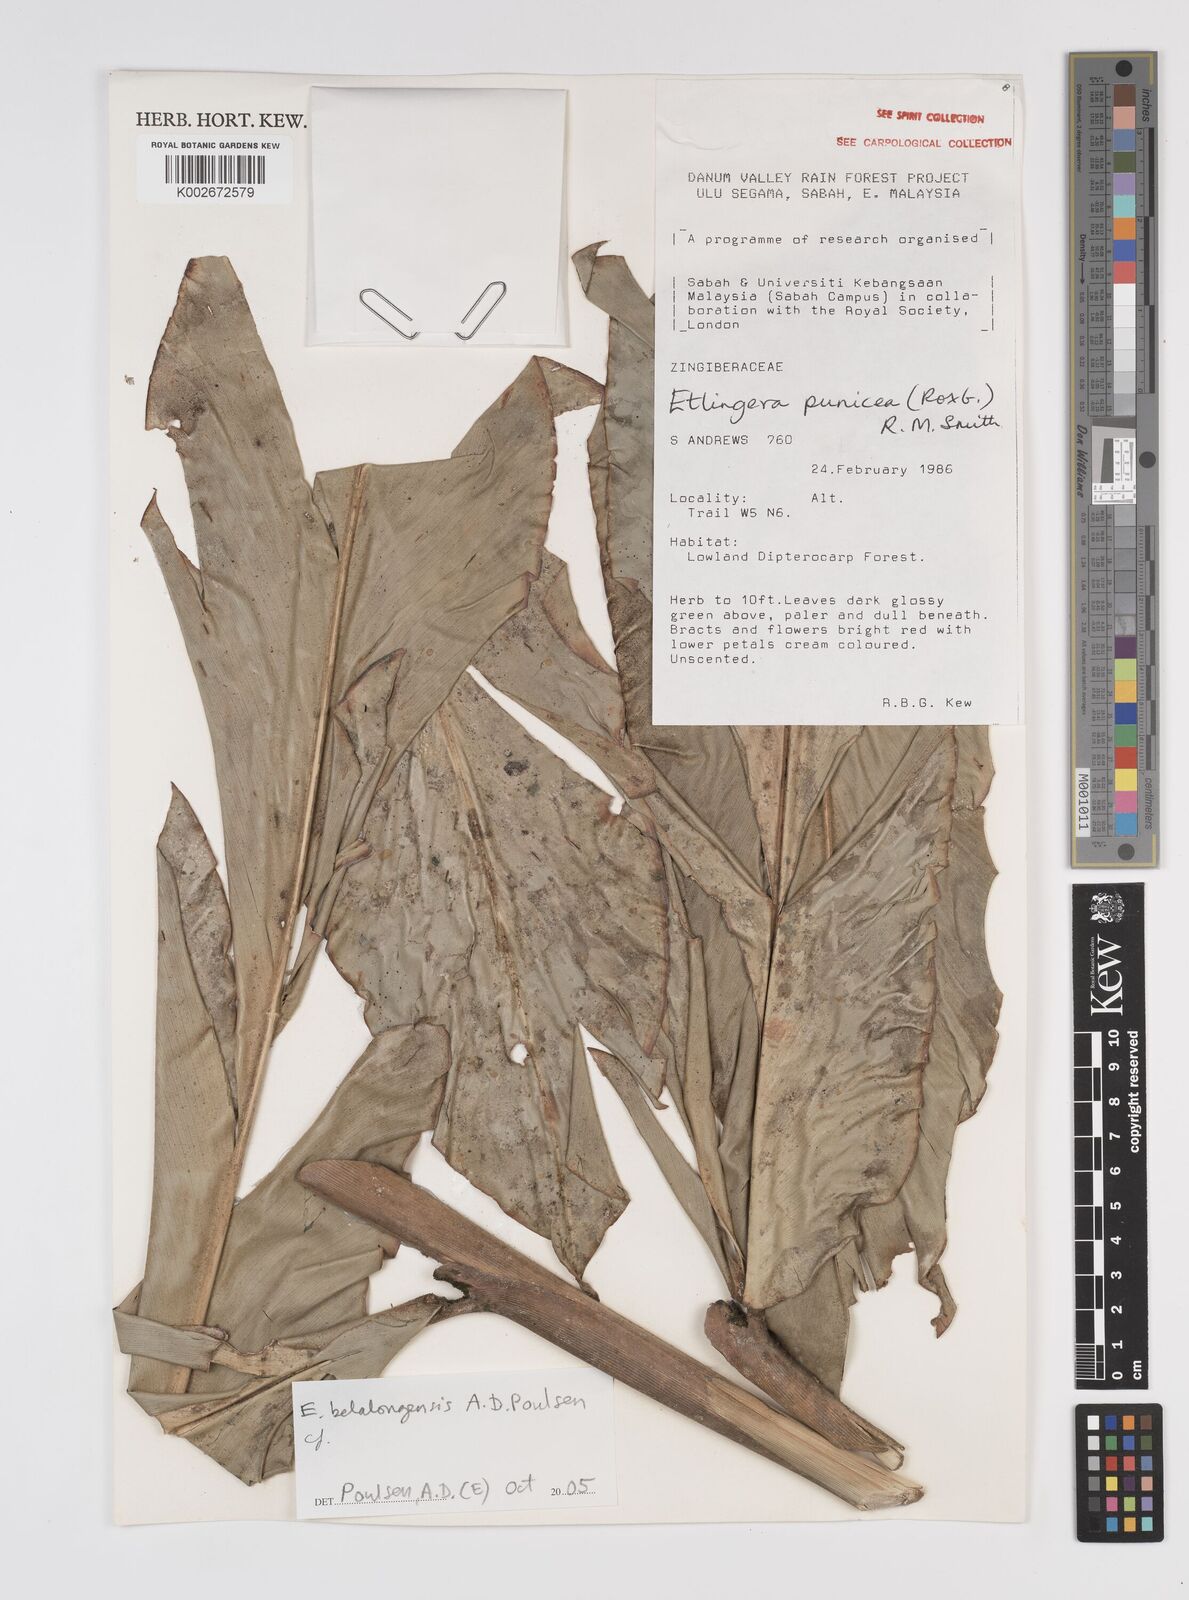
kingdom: Plantae
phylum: Tracheophyta
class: Liliopsida
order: Zingiberales
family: Zingiberaceae
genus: Etlingera
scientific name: Etlingera belalongensis
